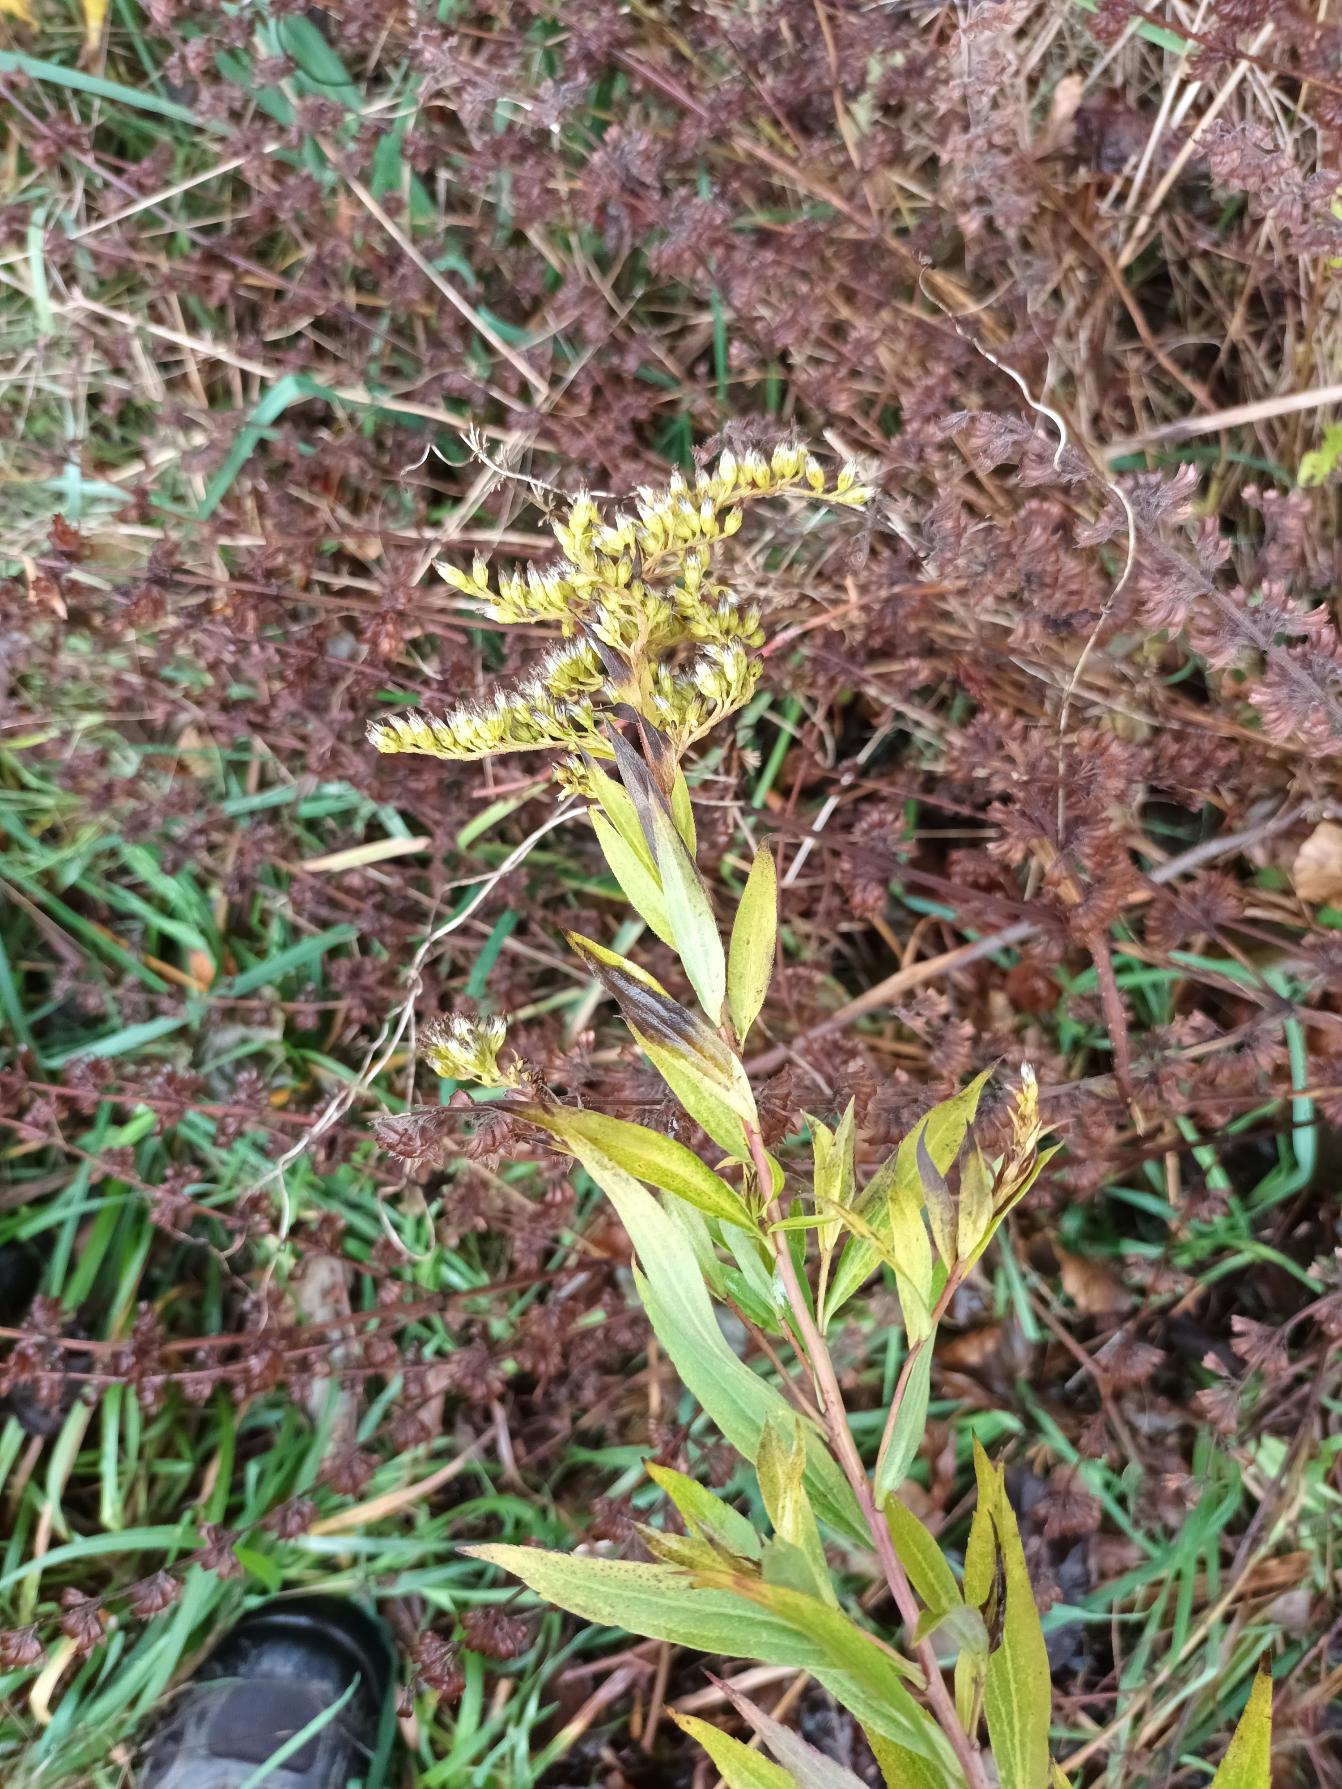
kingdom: Plantae
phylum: Tracheophyta
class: Magnoliopsida
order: Asterales
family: Asteraceae
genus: Solidago
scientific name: Solidago gigantea
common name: Sildig gyldenris
